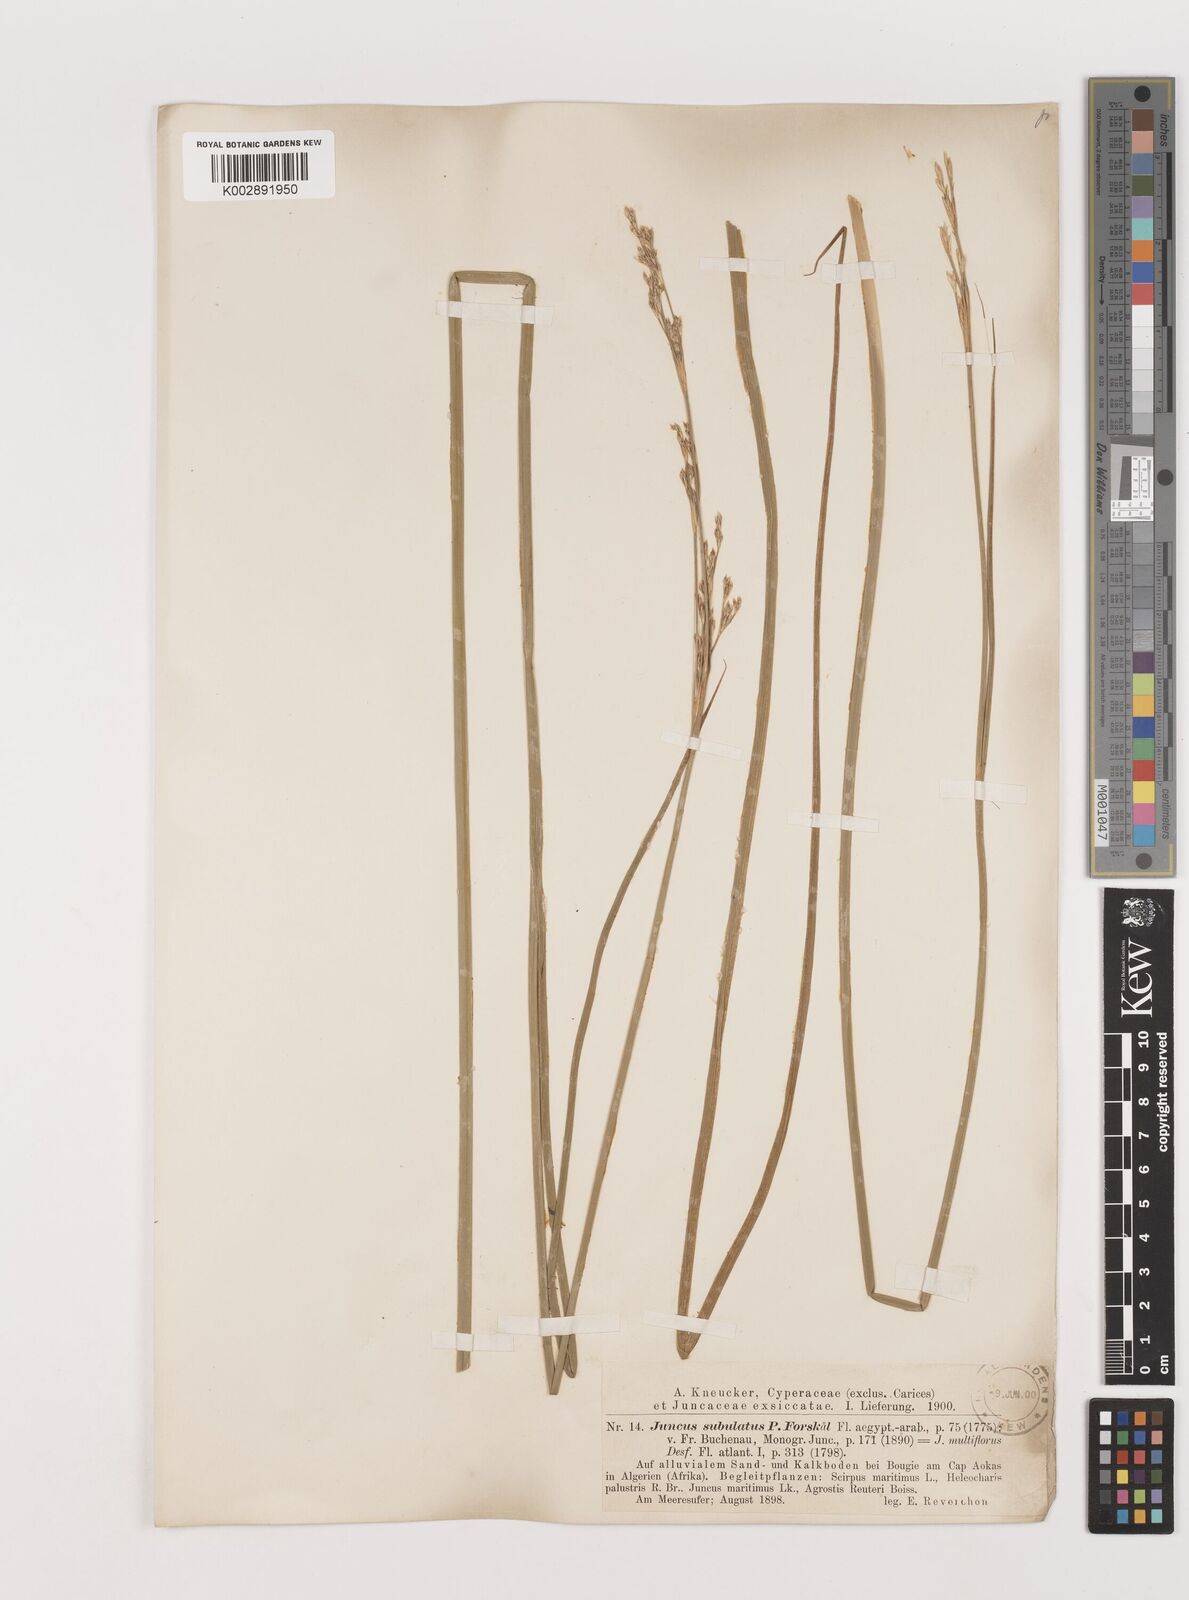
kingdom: Plantae
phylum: Tracheophyta
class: Liliopsida
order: Poales
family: Juncaceae
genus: Juncus
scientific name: Juncus subulatus
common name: Somerset rush
